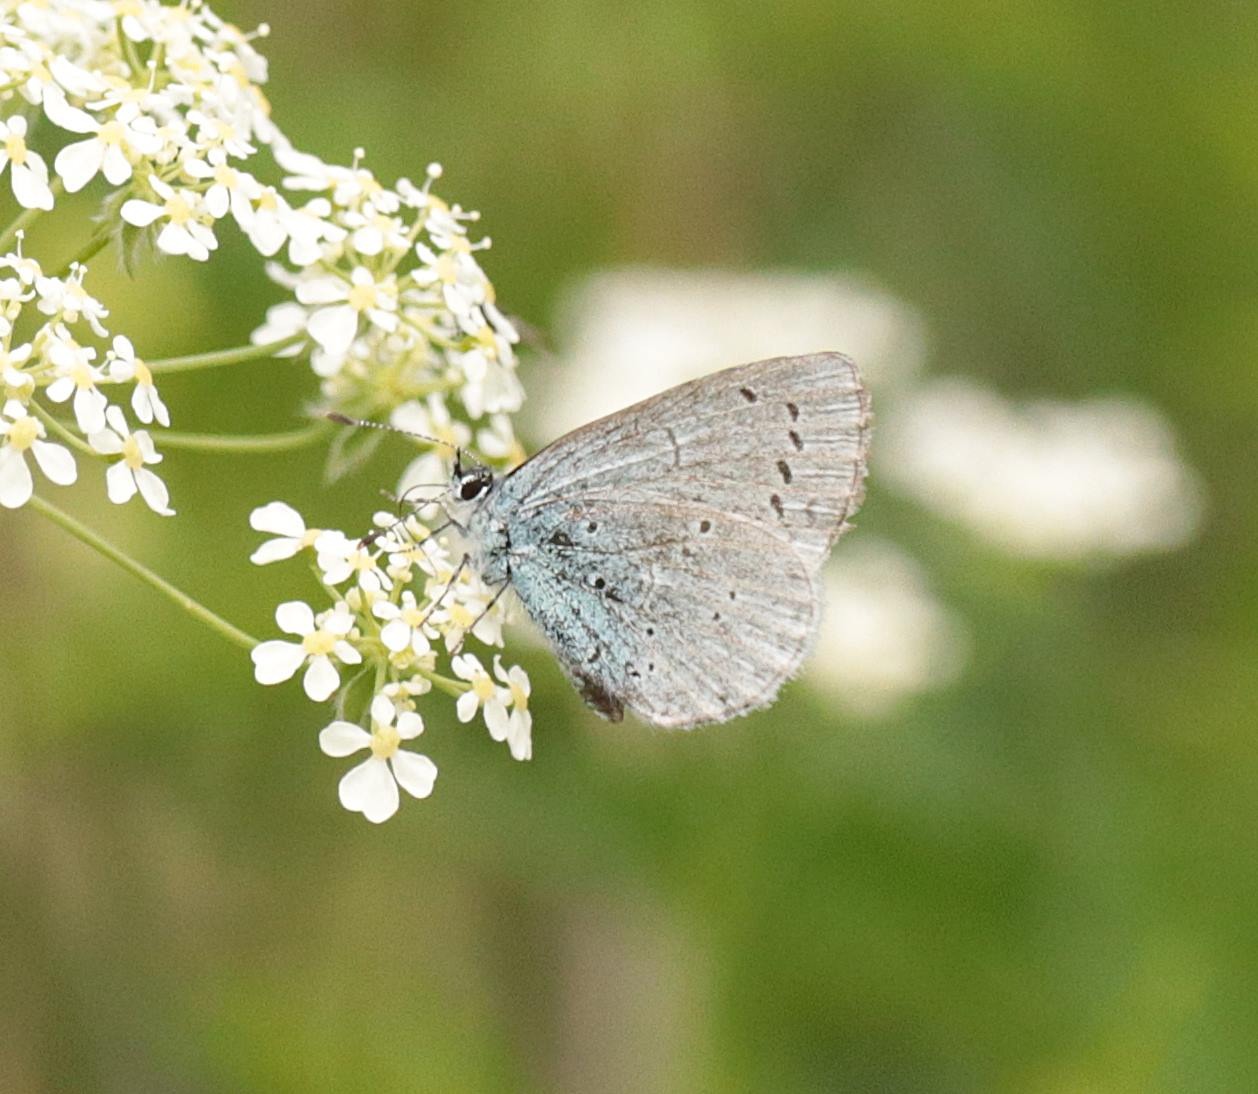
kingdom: Animalia
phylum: Arthropoda
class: Insecta
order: Lepidoptera
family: Lycaenidae
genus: Celastrina
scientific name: Celastrina argiolus
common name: Skovblåfugl
